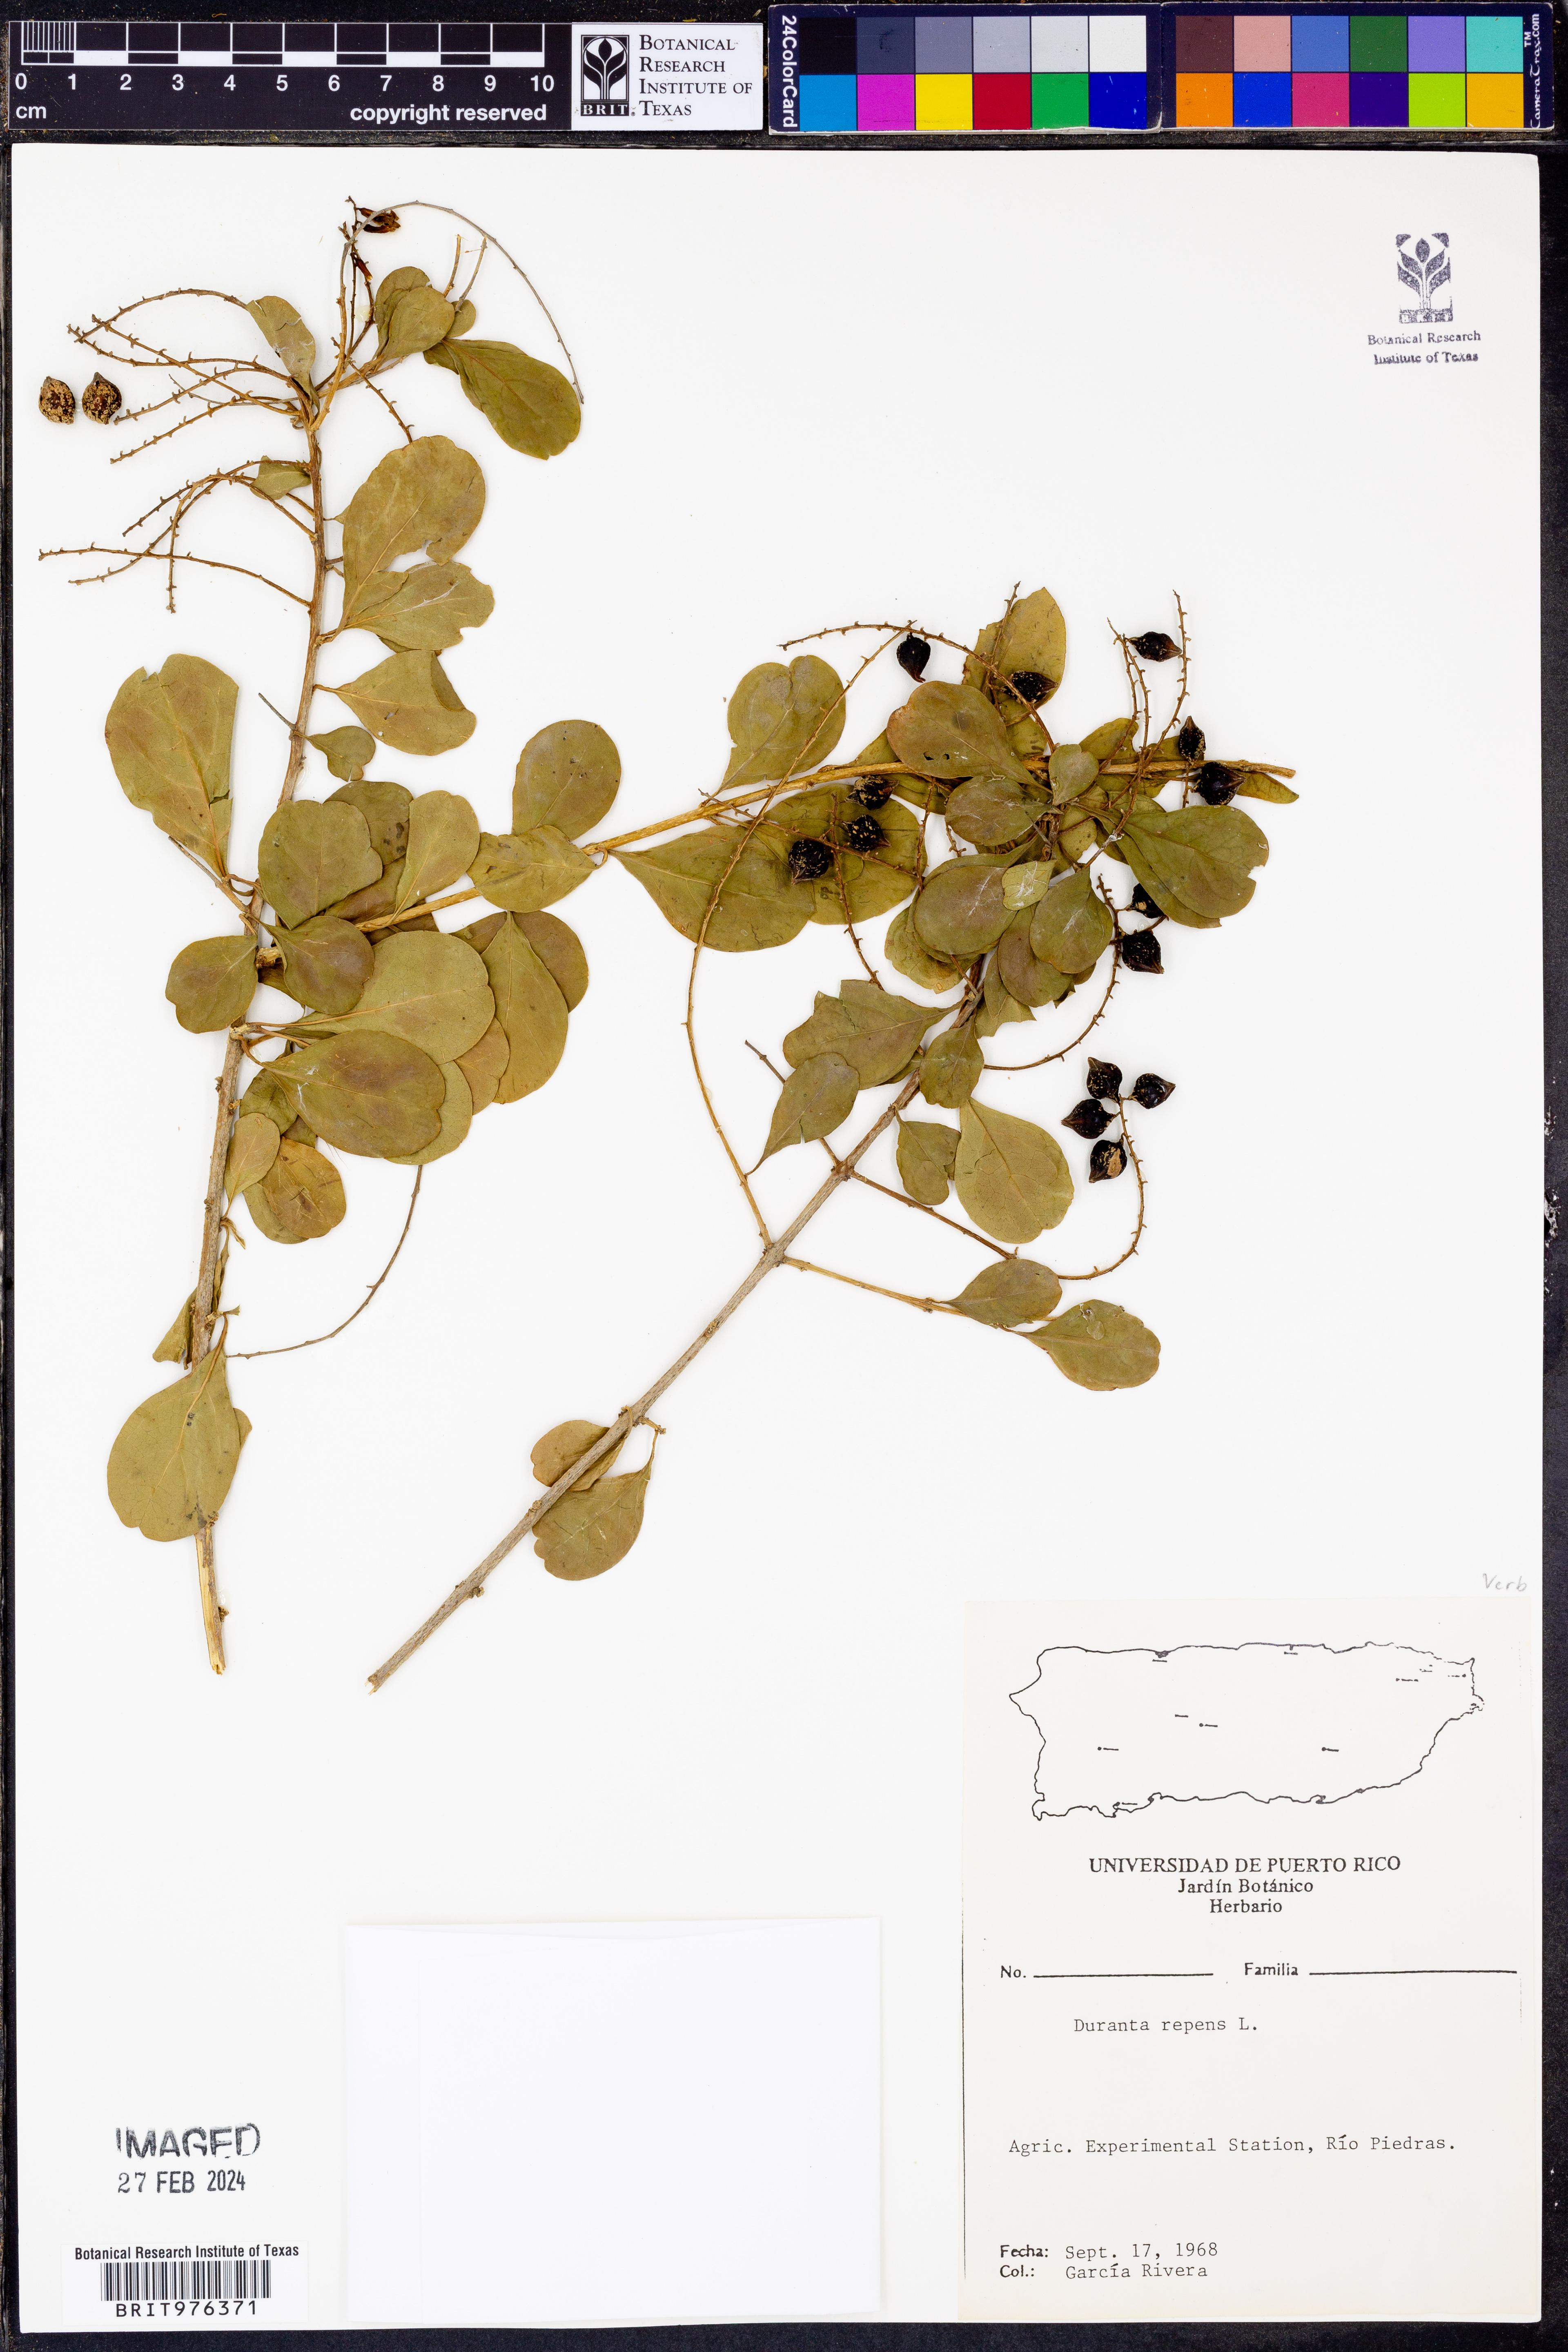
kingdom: Plantae
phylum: Tracheophyta
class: Magnoliopsida
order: Lamiales
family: Verbenaceae
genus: Duranta
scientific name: Duranta
